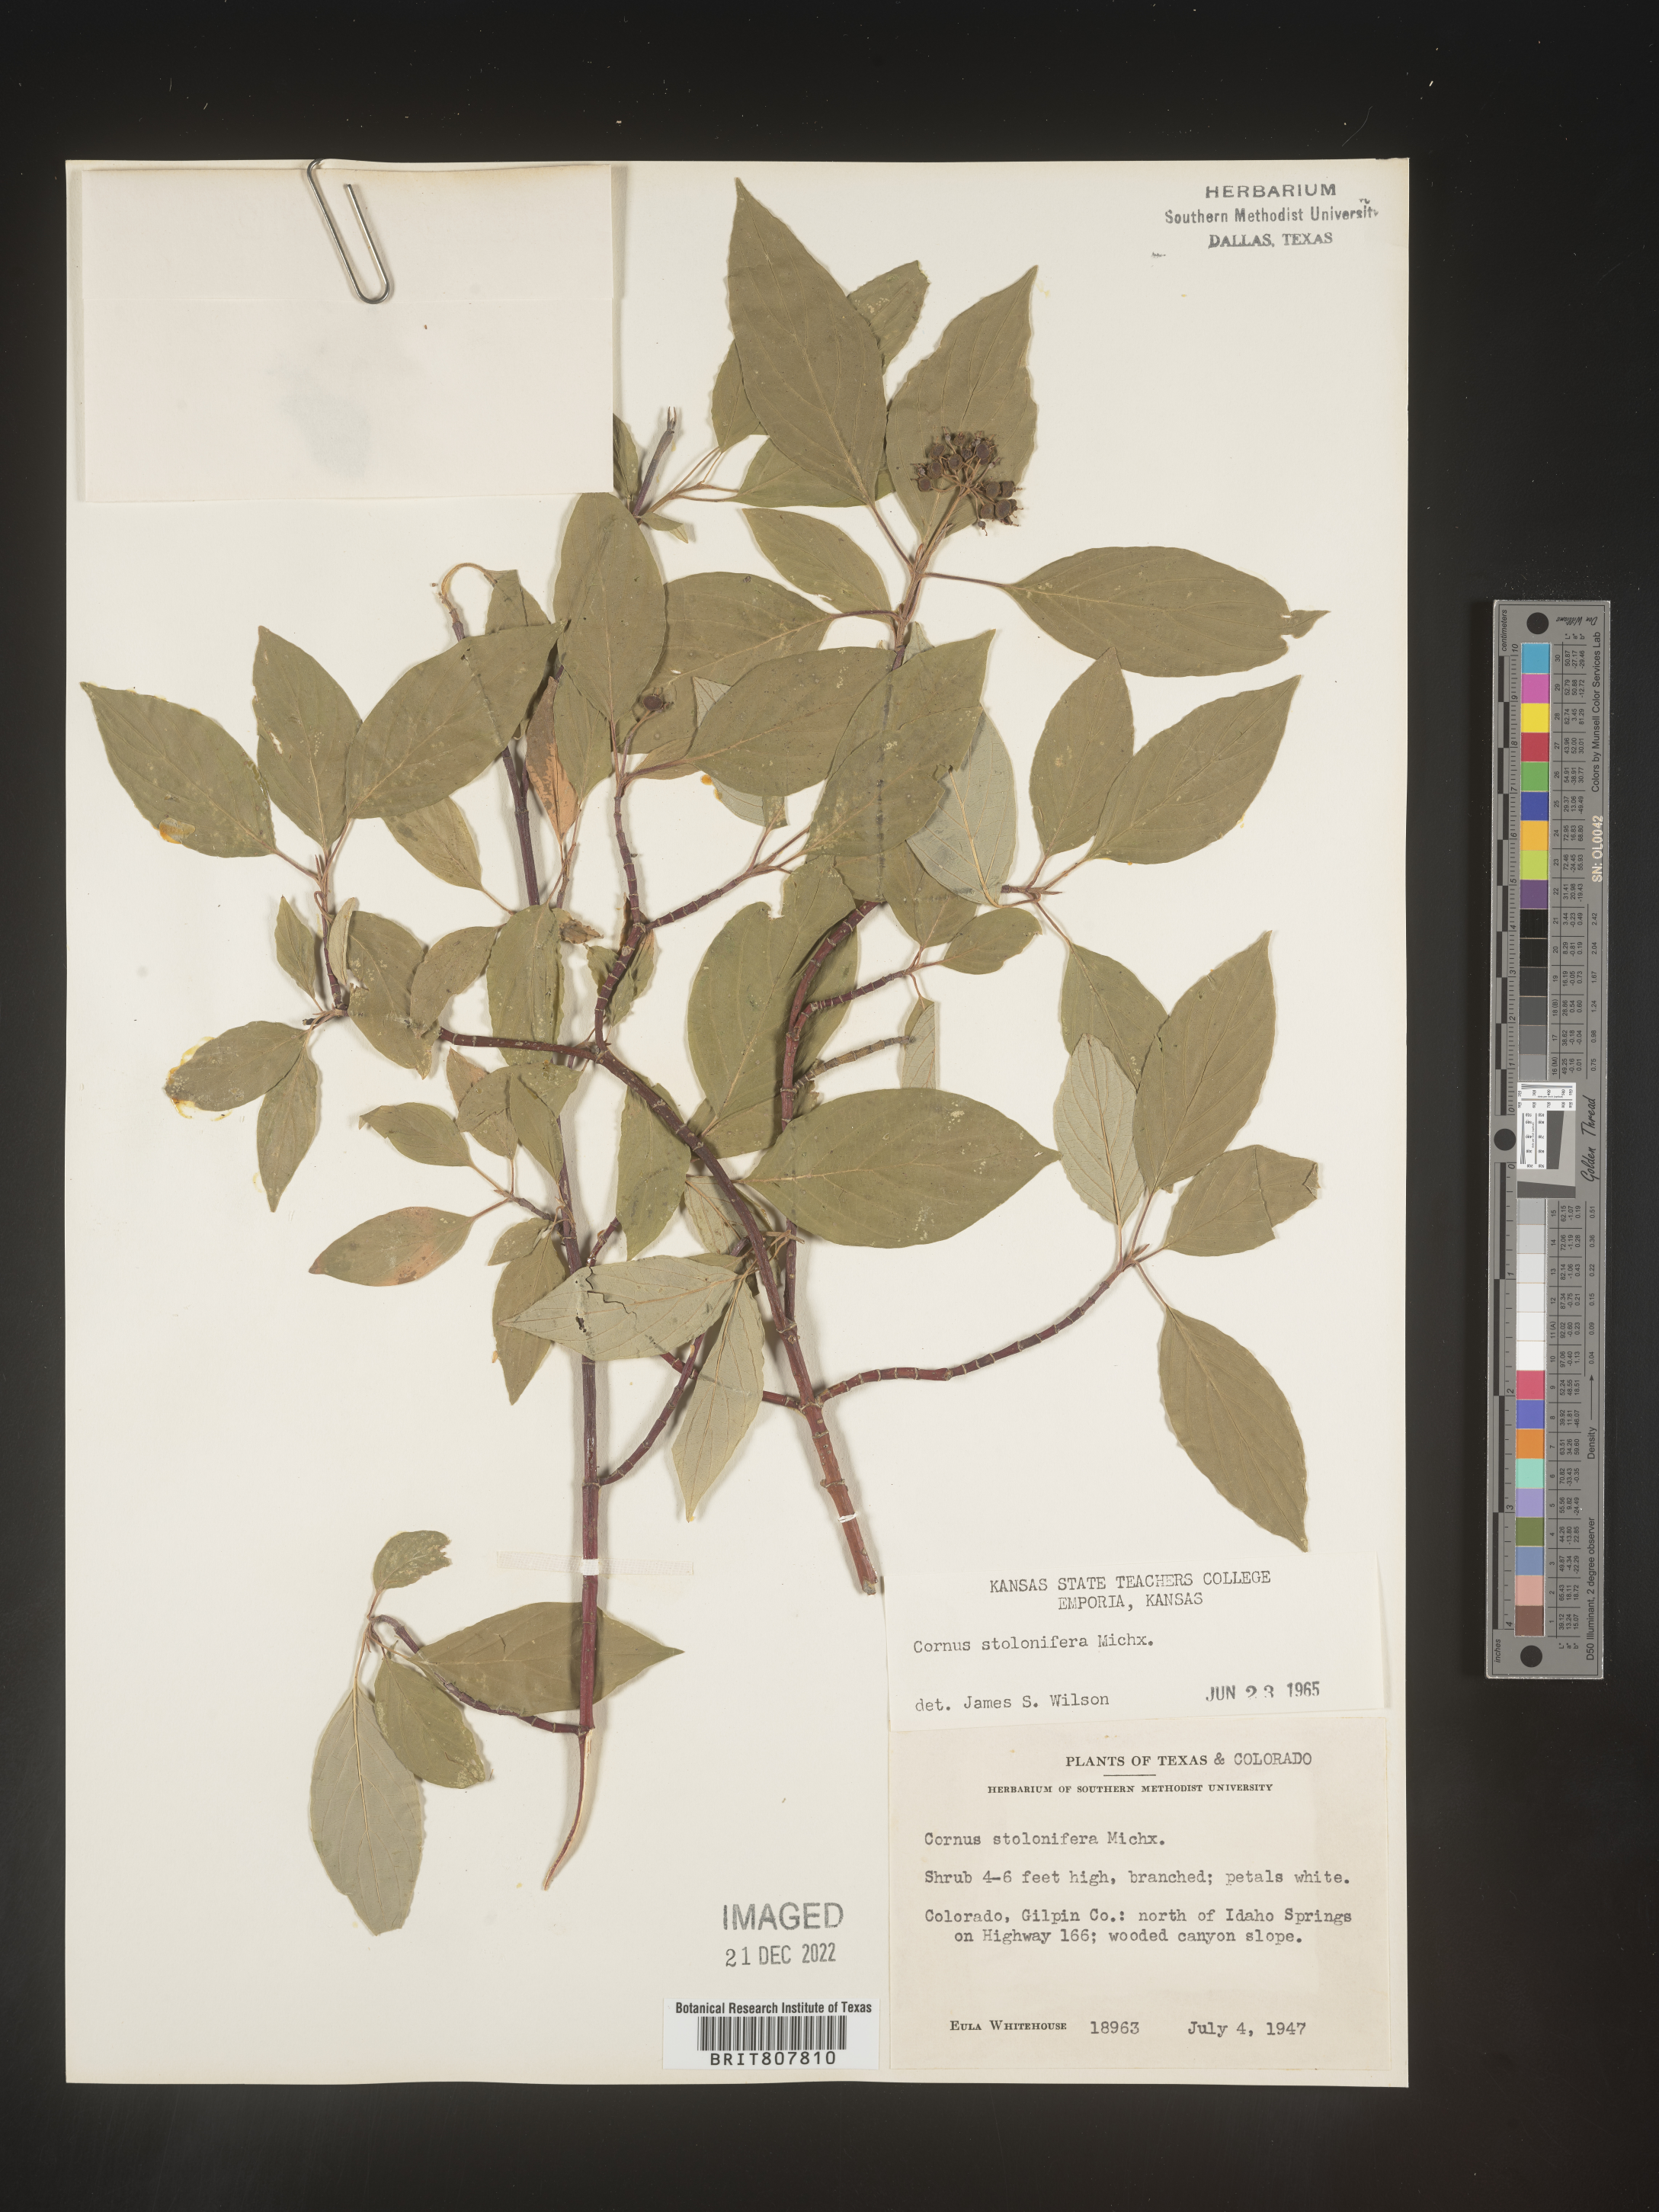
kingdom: Plantae
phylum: Tracheophyta
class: Magnoliopsida
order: Cornales
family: Cornaceae
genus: Cornus
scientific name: Cornus sericea
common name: Red-osier dogwood
